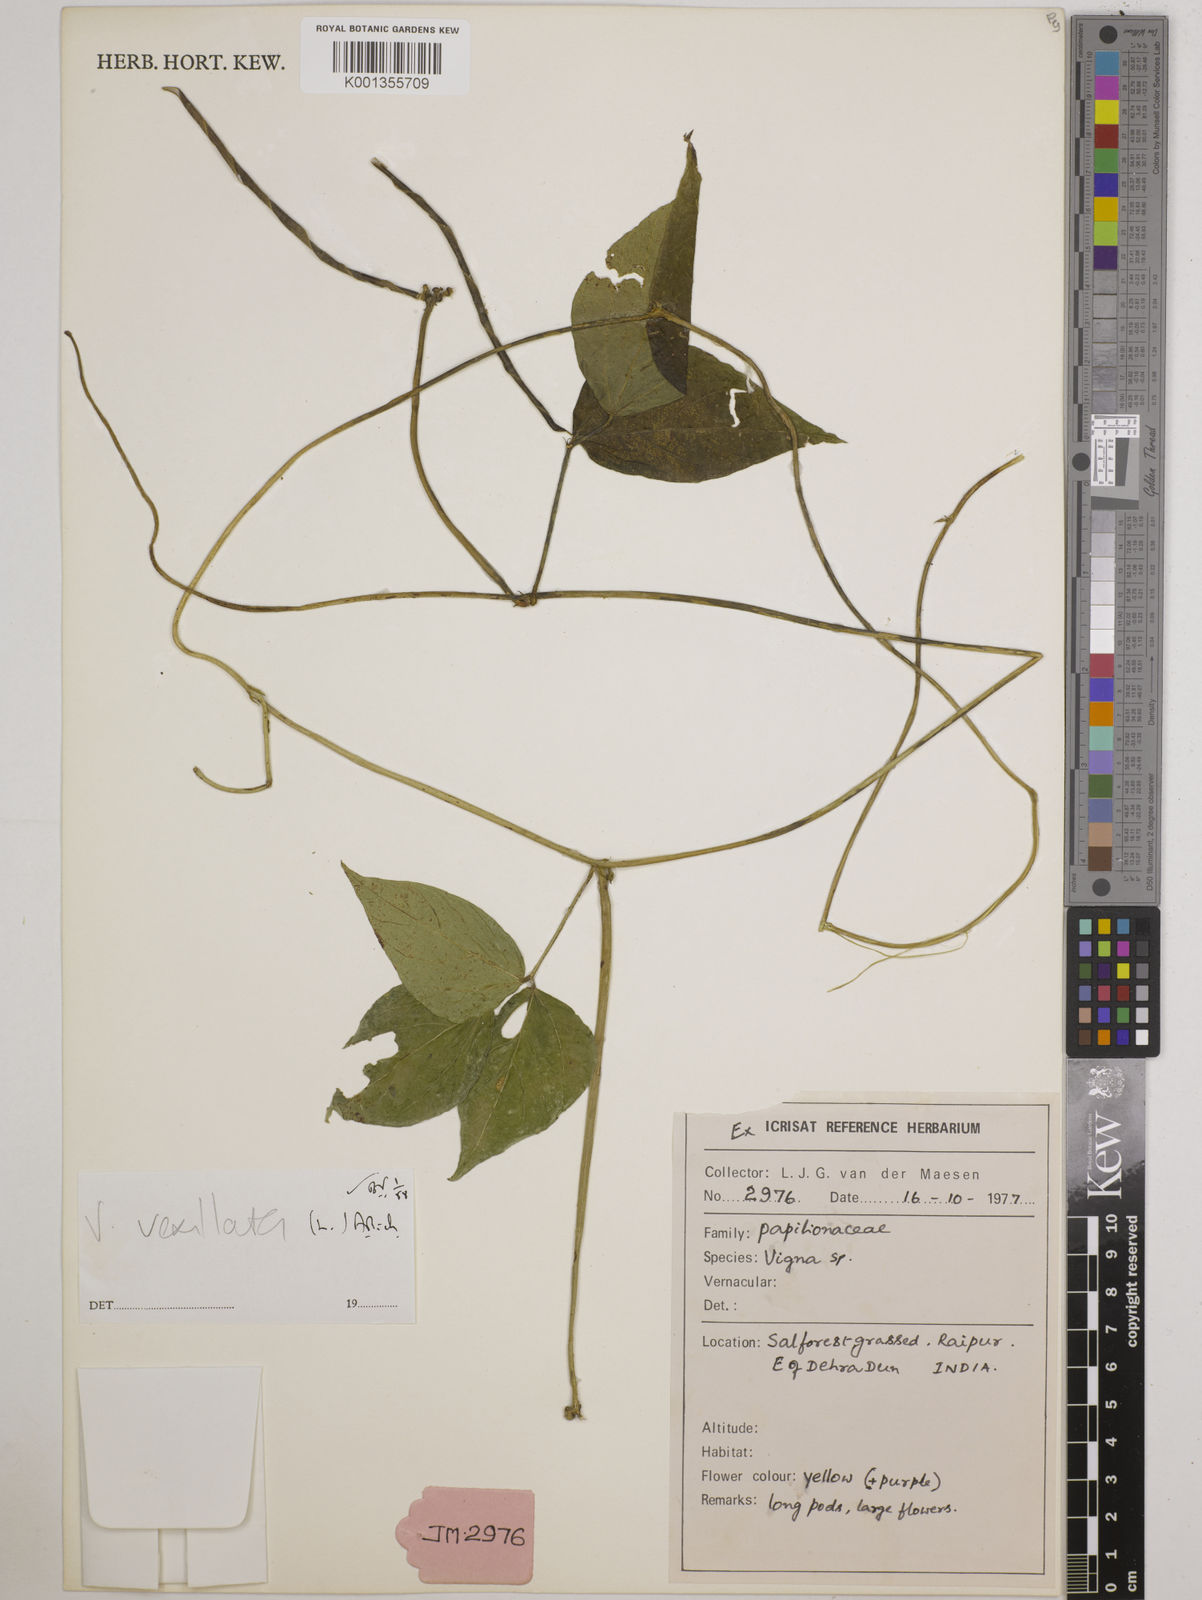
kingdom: Plantae
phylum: Tracheophyta
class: Magnoliopsida
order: Fabales
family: Fabaceae
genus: Vigna
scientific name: Vigna vexillata
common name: Zombi pea
